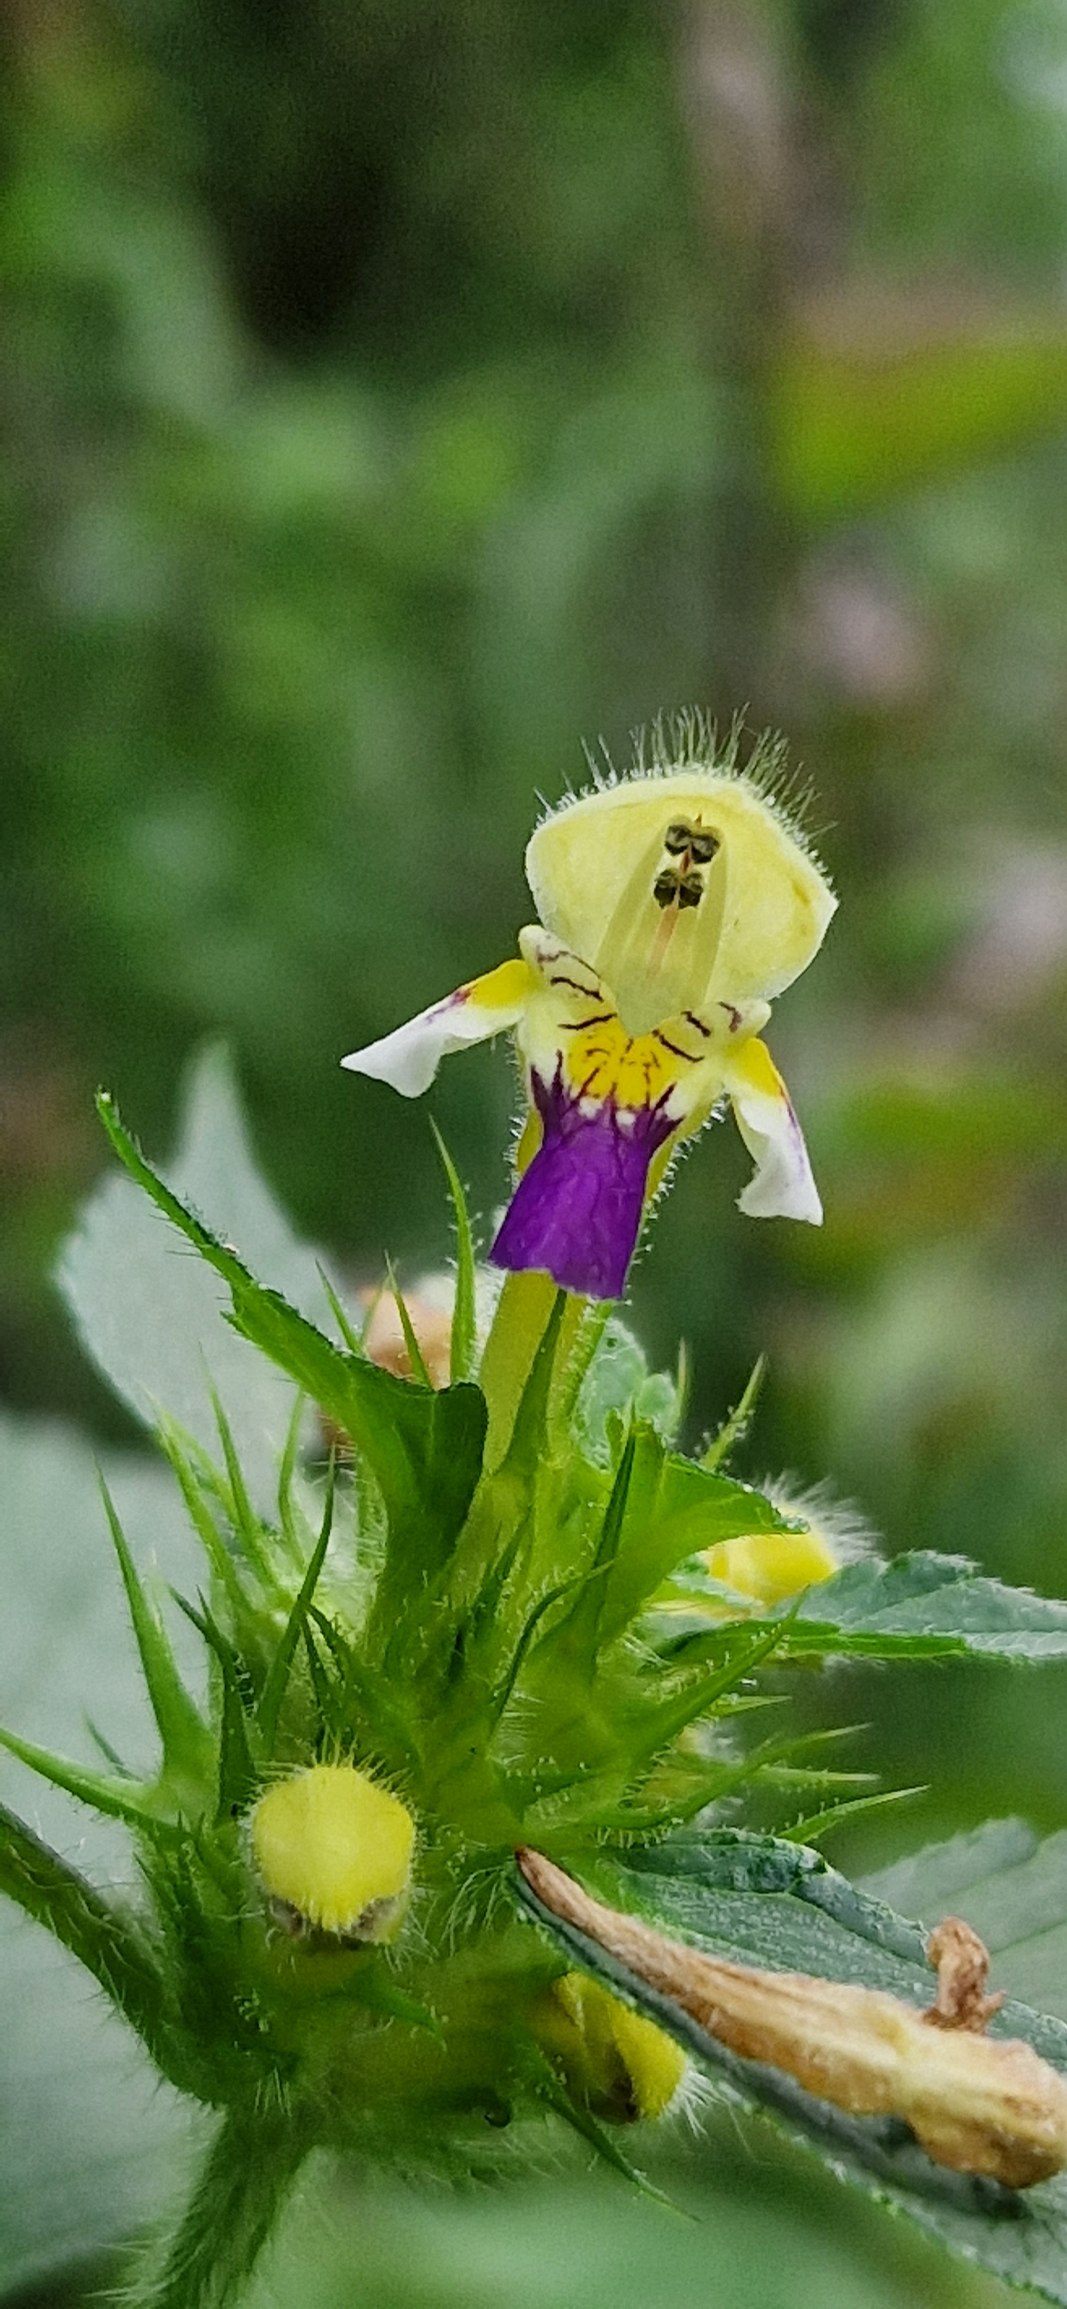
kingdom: Plantae
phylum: Tracheophyta
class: Magnoliopsida
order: Lamiales
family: Lamiaceae
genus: Galeopsis
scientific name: Galeopsis speciosa
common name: Hamp-hanekro
